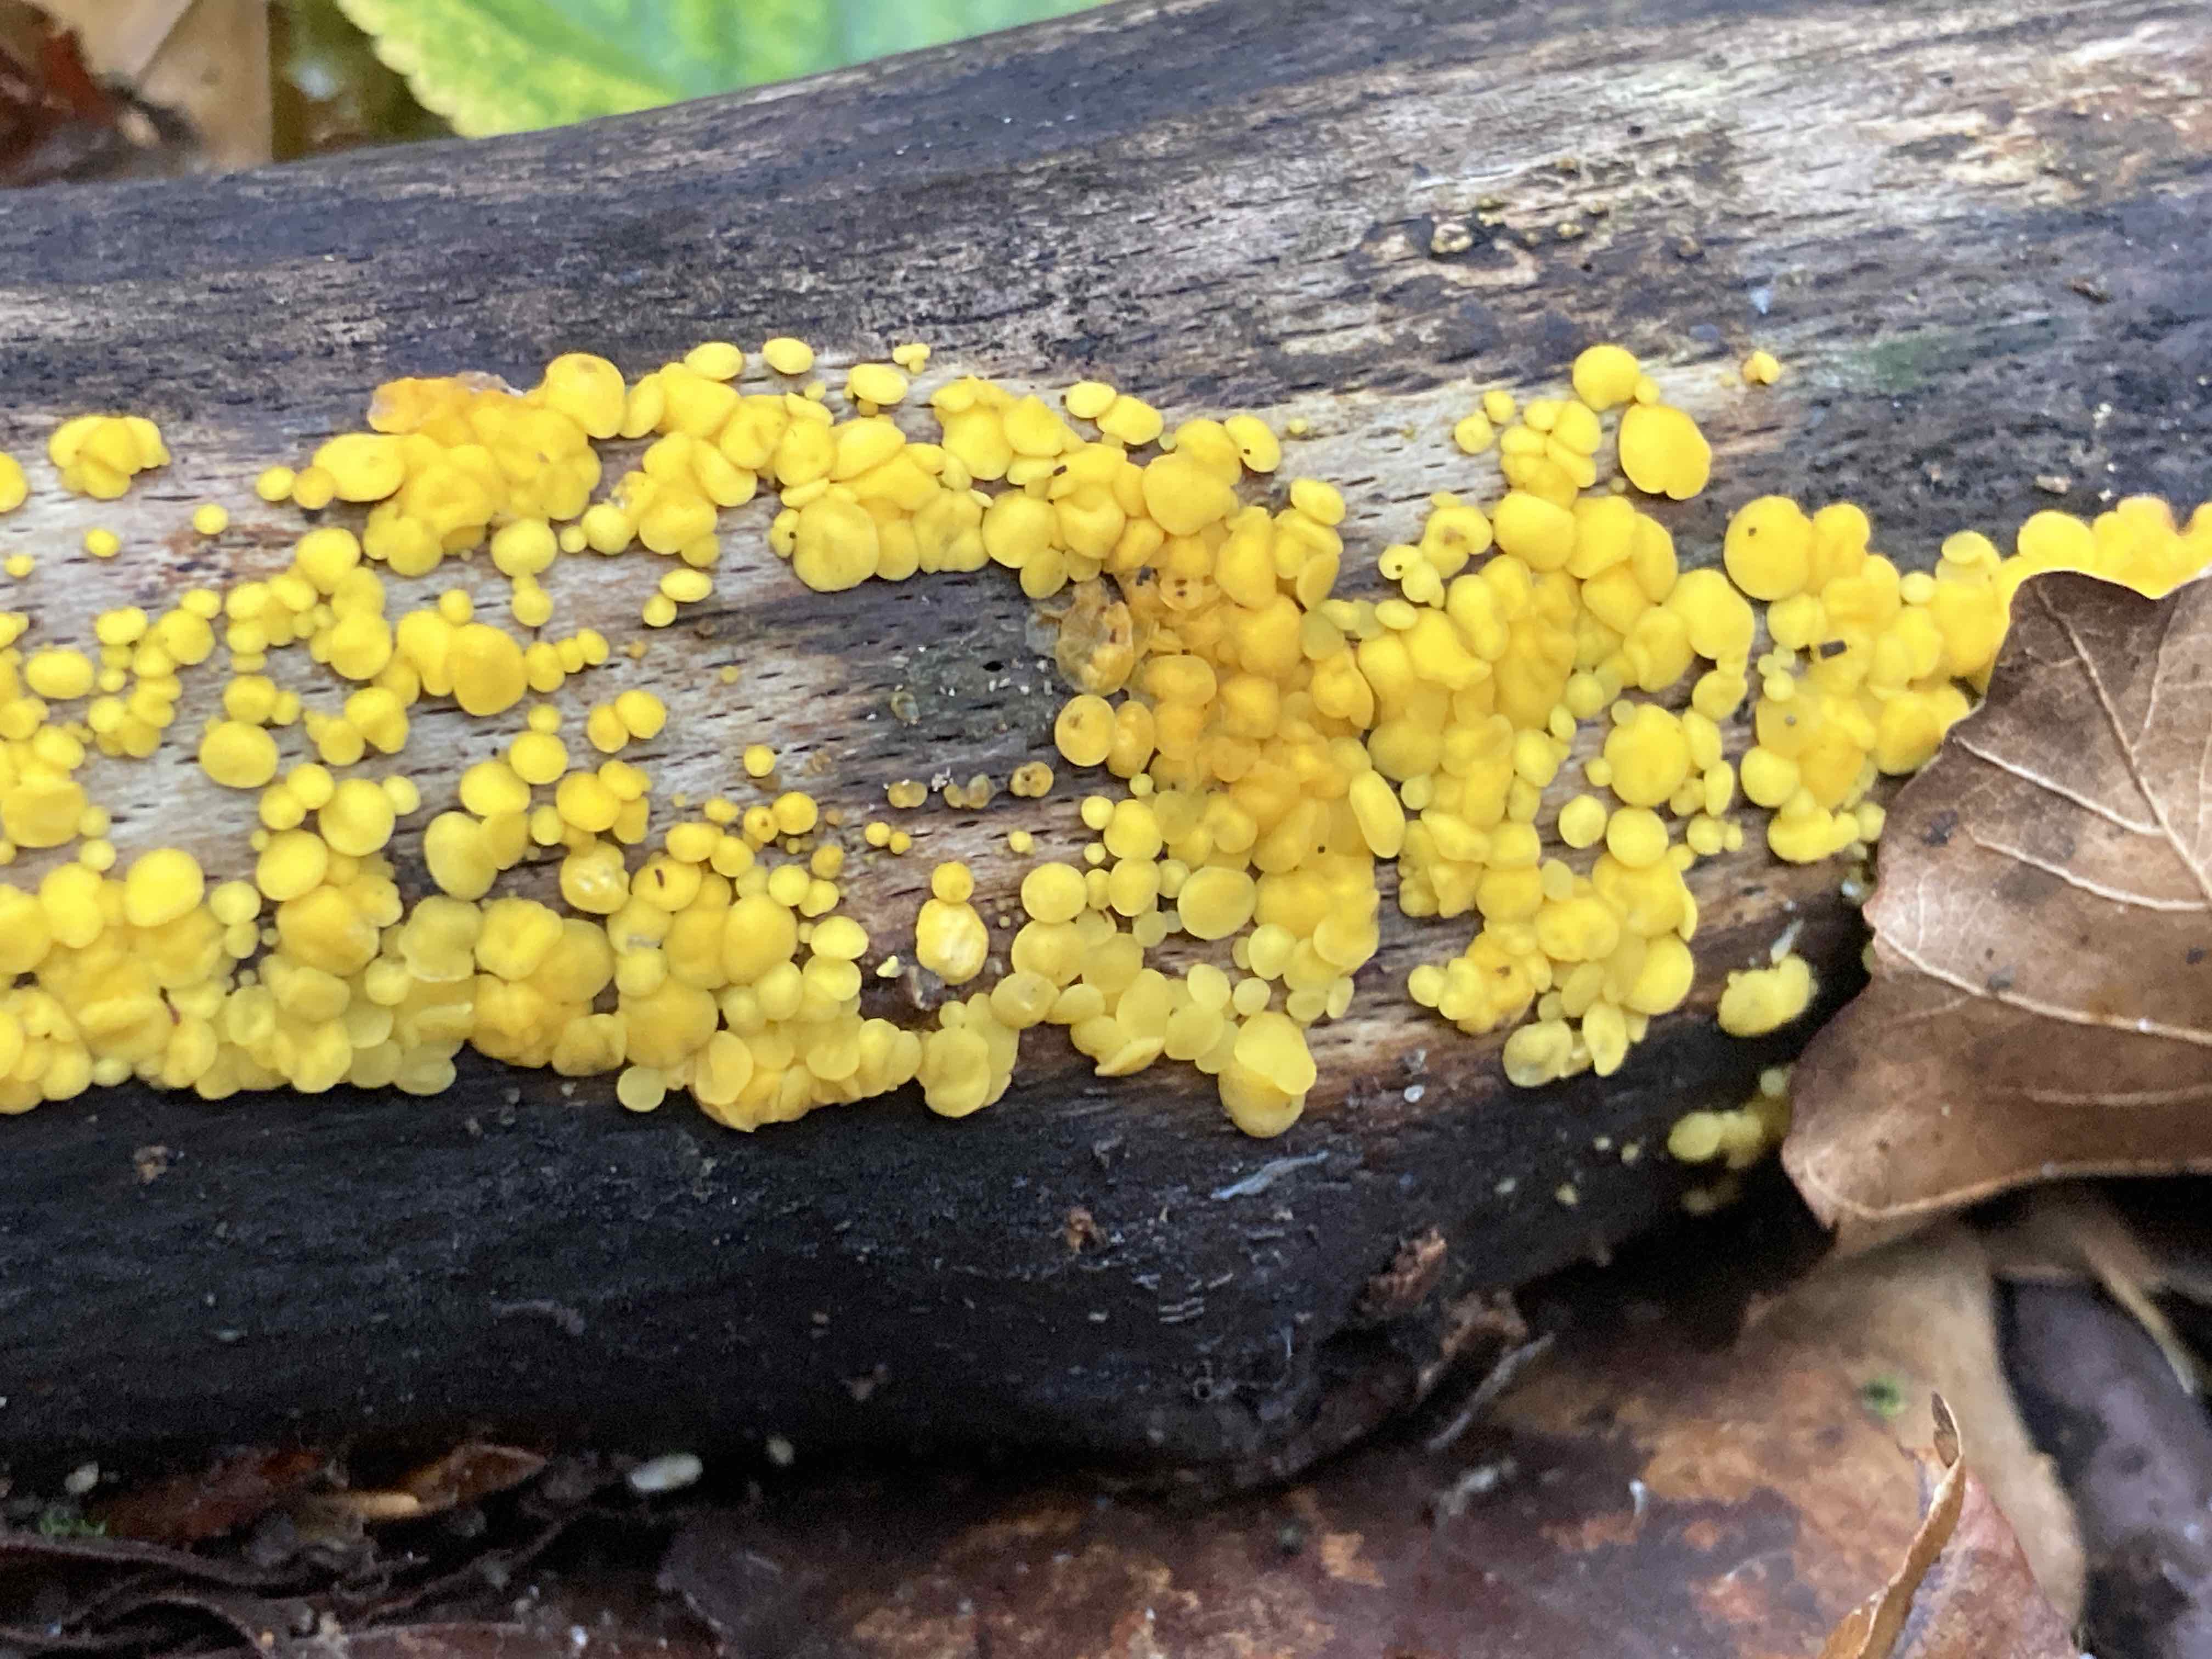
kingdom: Fungi
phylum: Ascomycota
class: Leotiomycetes
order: Helotiales
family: Pezizellaceae
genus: Calycina
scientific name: Calycina citrina
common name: almindelig gulskive
